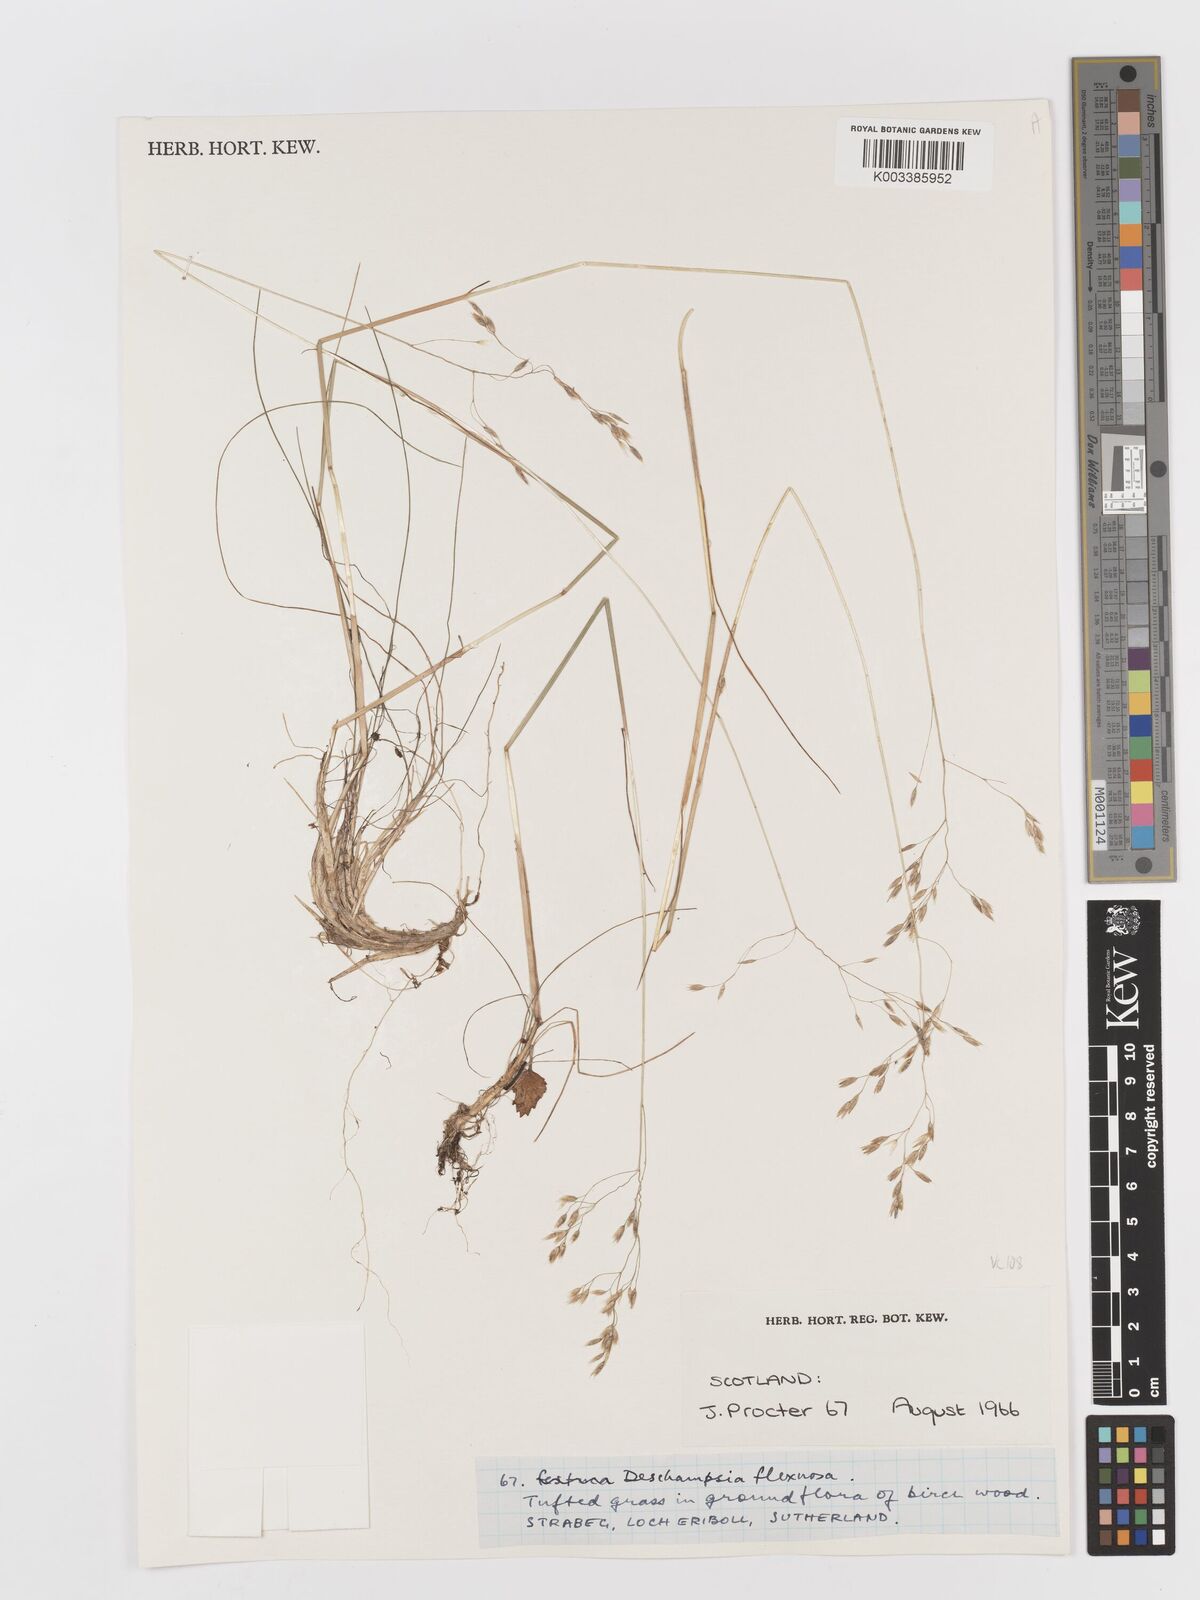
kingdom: Plantae
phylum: Tracheophyta
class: Liliopsida
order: Poales
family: Poaceae
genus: Avenella
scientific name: Avenella flexuosa
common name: Wavy hairgrass
